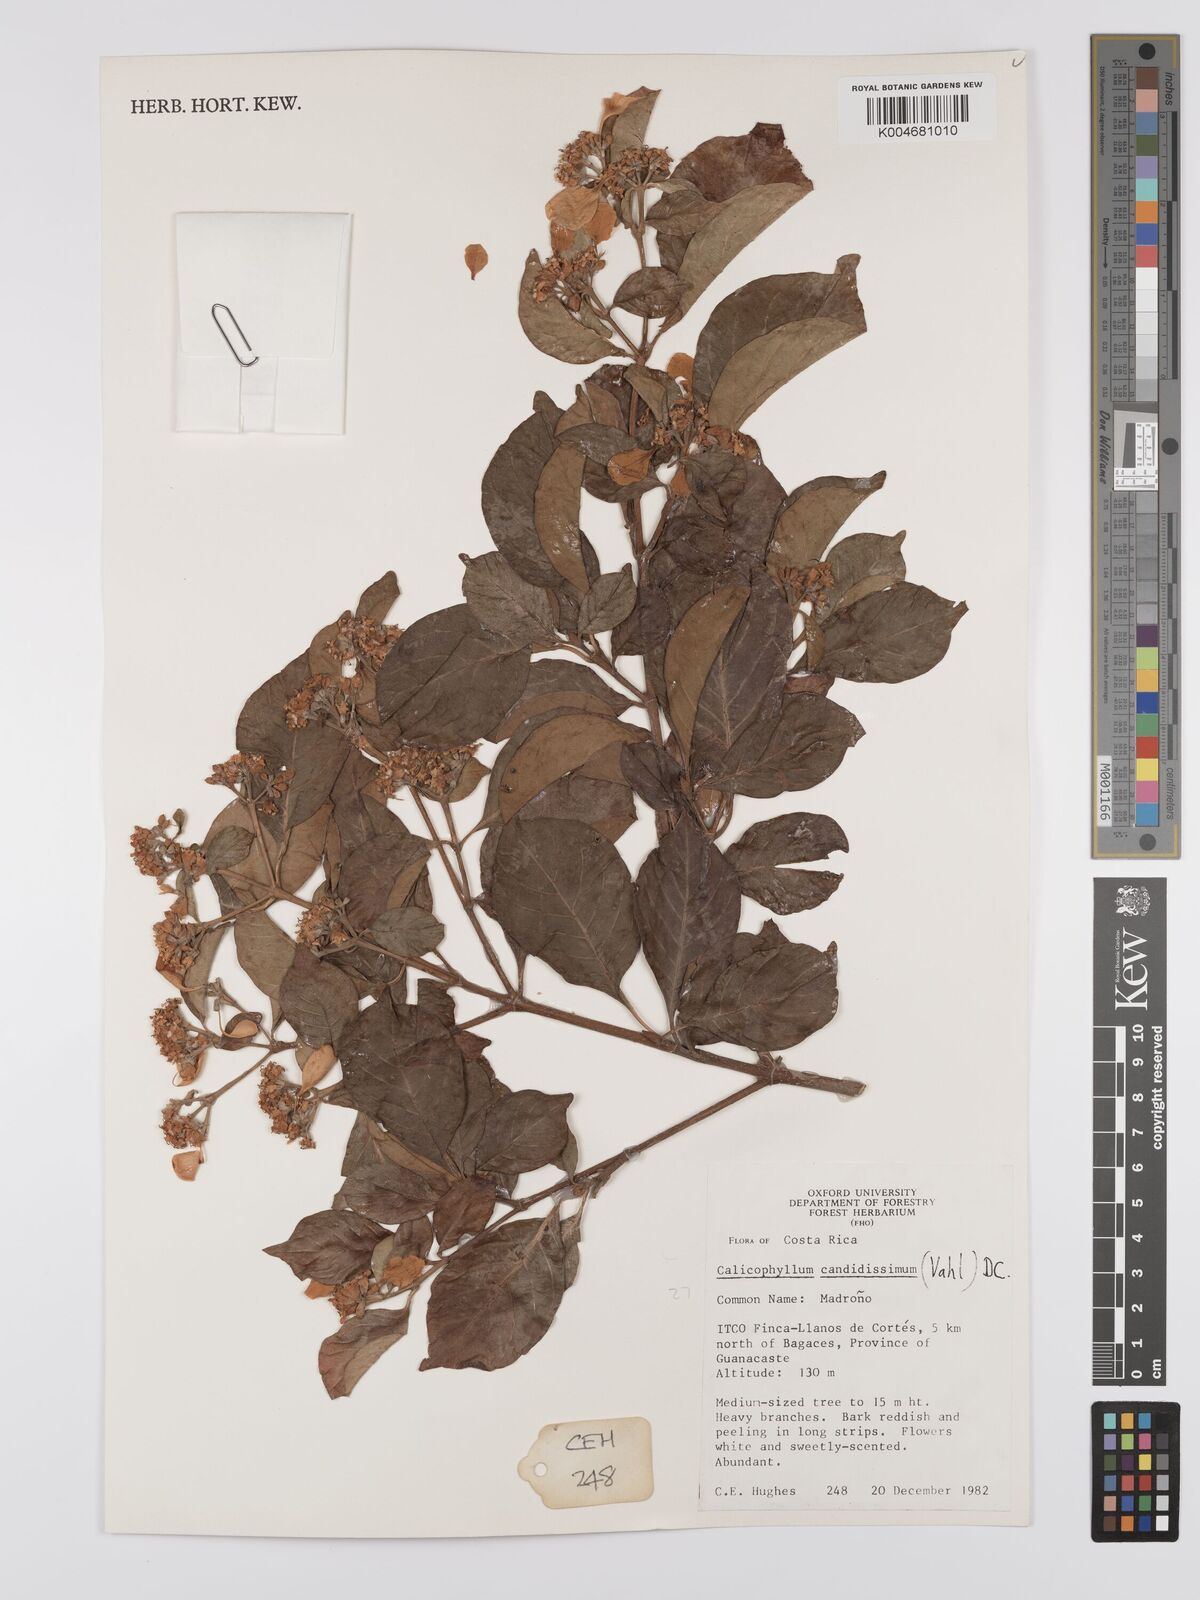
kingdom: Plantae
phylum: Tracheophyta
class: Magnoliopsida
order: Gentianales
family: Rubiaceae
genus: Calycophyllum
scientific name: Calycophyllum candidissimum
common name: Dagame
